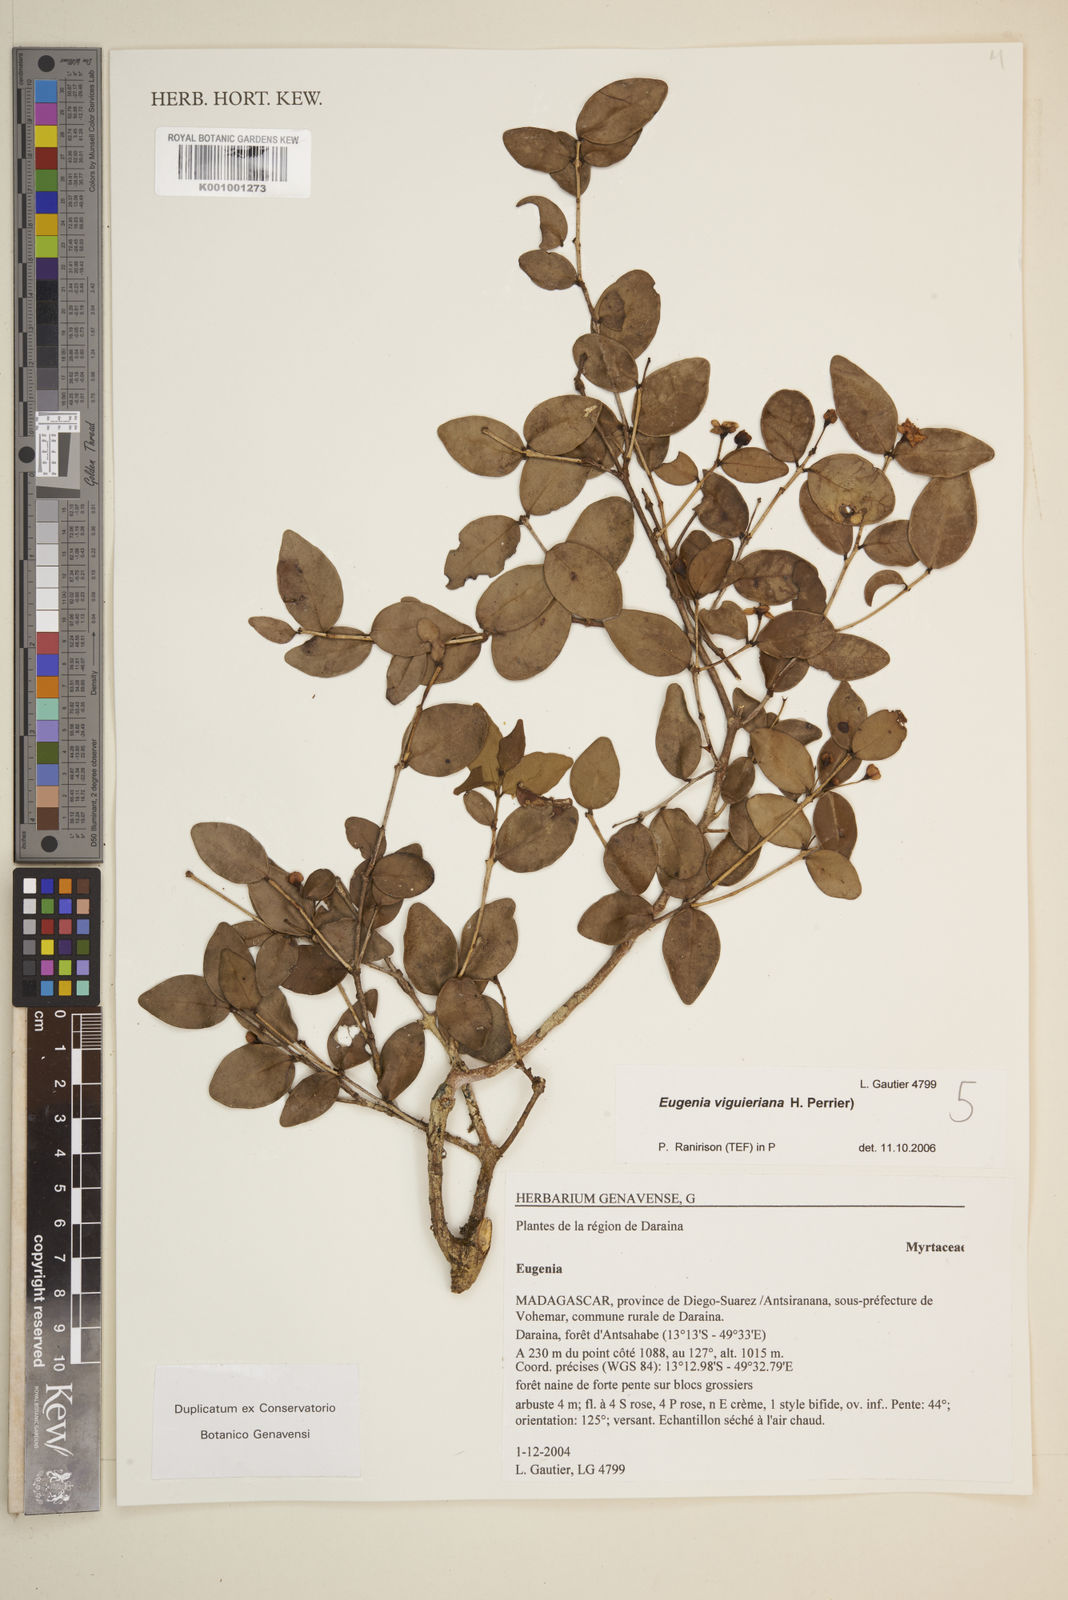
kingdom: Plantae
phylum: Tracheophyta
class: Magnoliopsida
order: Myrtales
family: Myrtaceae
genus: Eugenia
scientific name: Eugenia viguieriana
